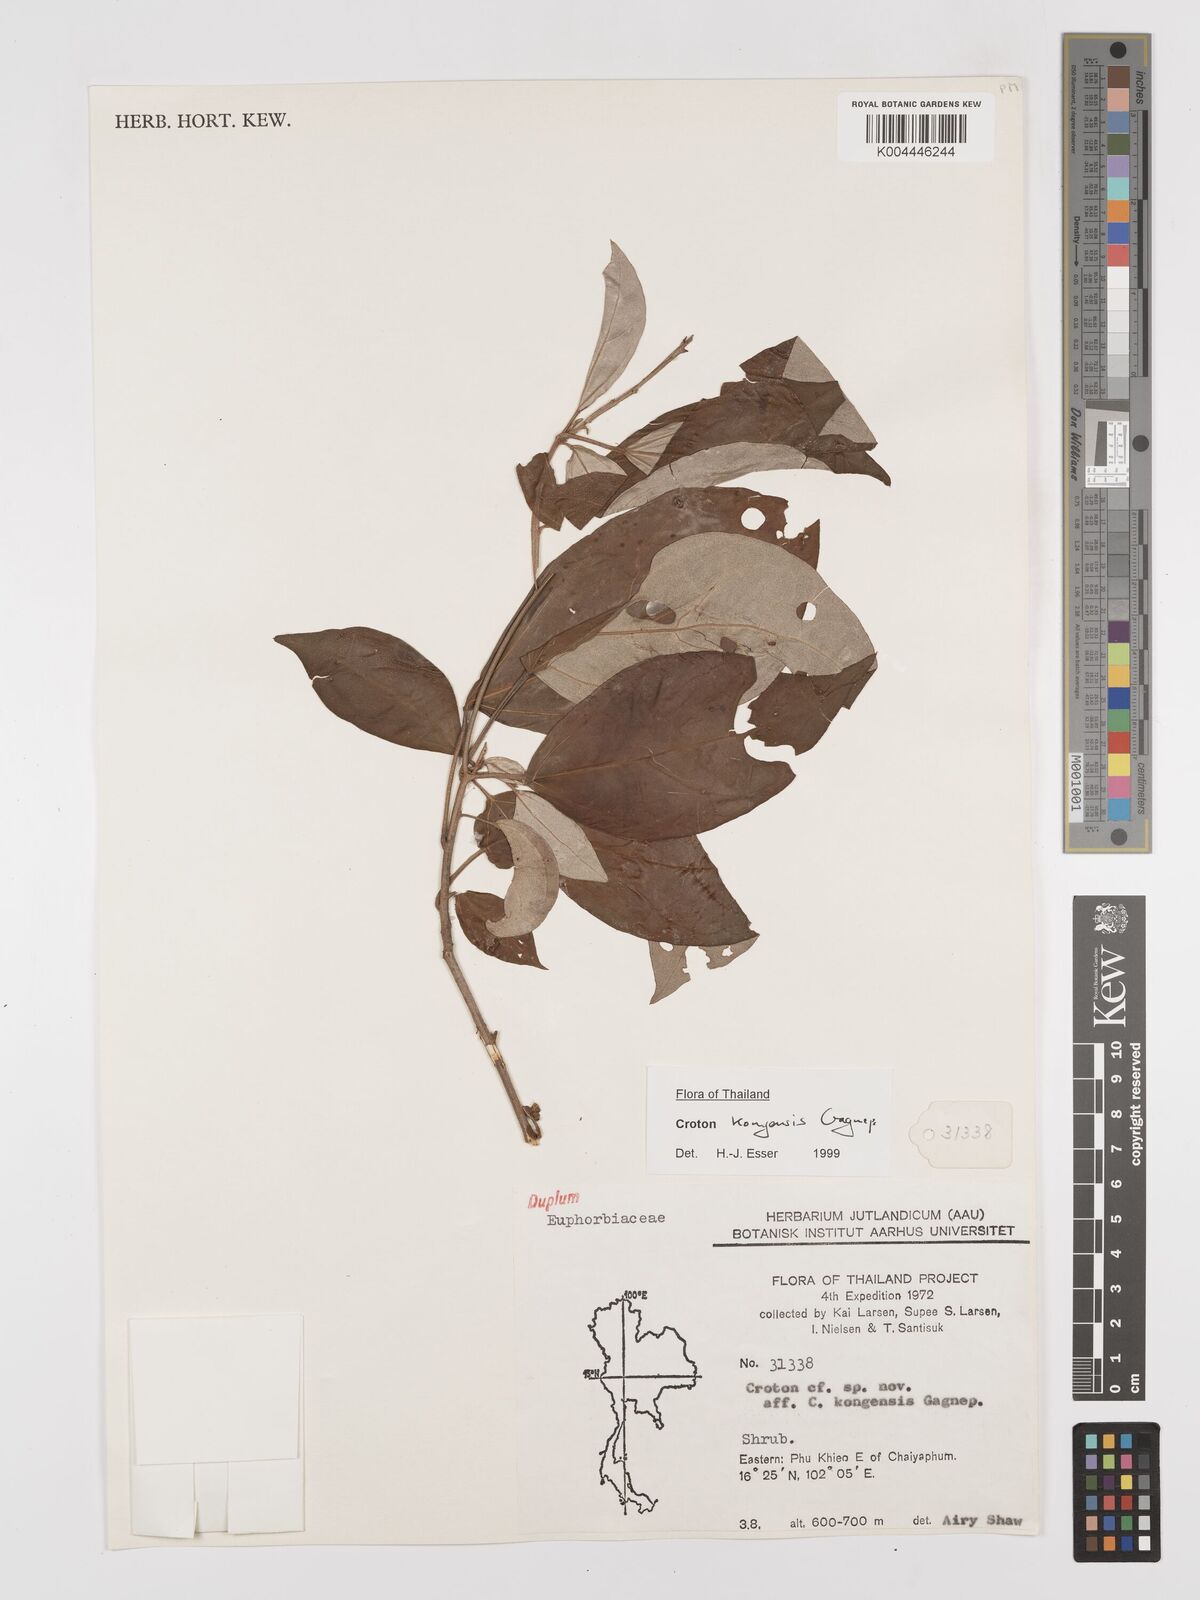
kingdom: Plantae
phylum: Tracheophyta
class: Magnoliopsida
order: Malpighiales
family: Euphorbiaceae
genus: Croton
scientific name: Croton kongensis
